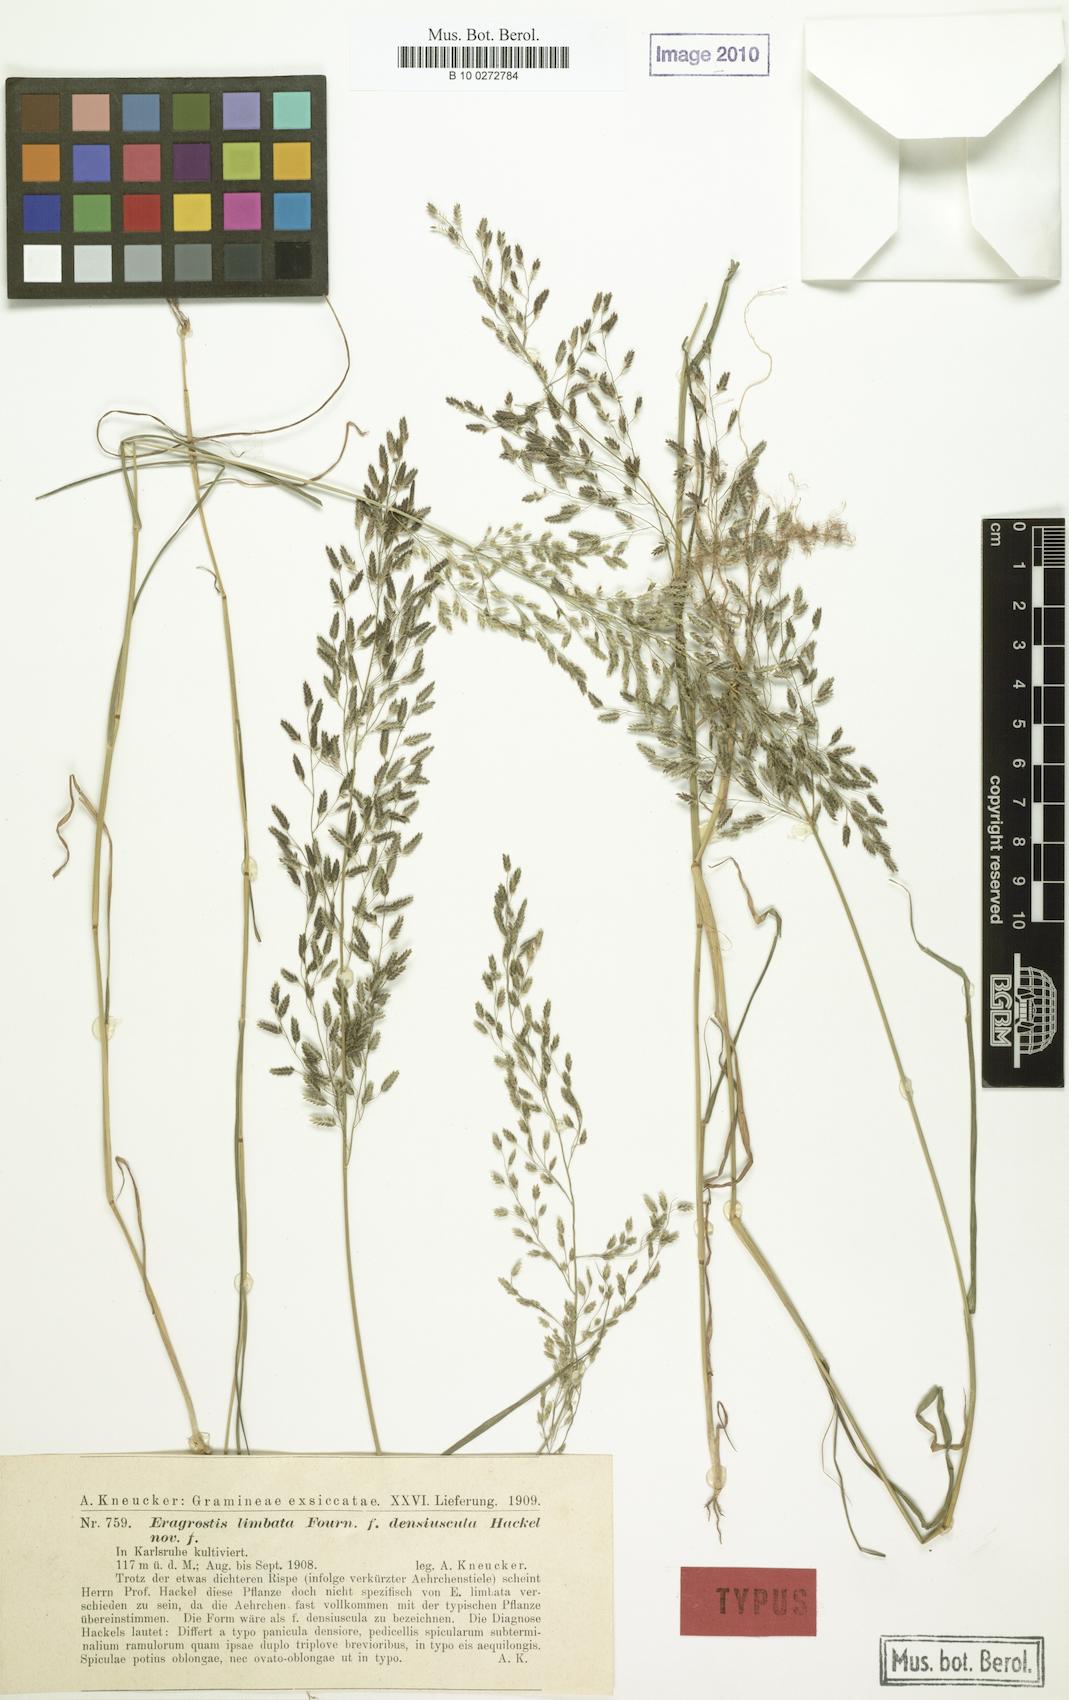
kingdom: Plantae
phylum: Tracheophyta
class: Liliopsida
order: Poales
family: Poaceae
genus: Eragrostis
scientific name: Eragrostis mexicana
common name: Mexican love grass
